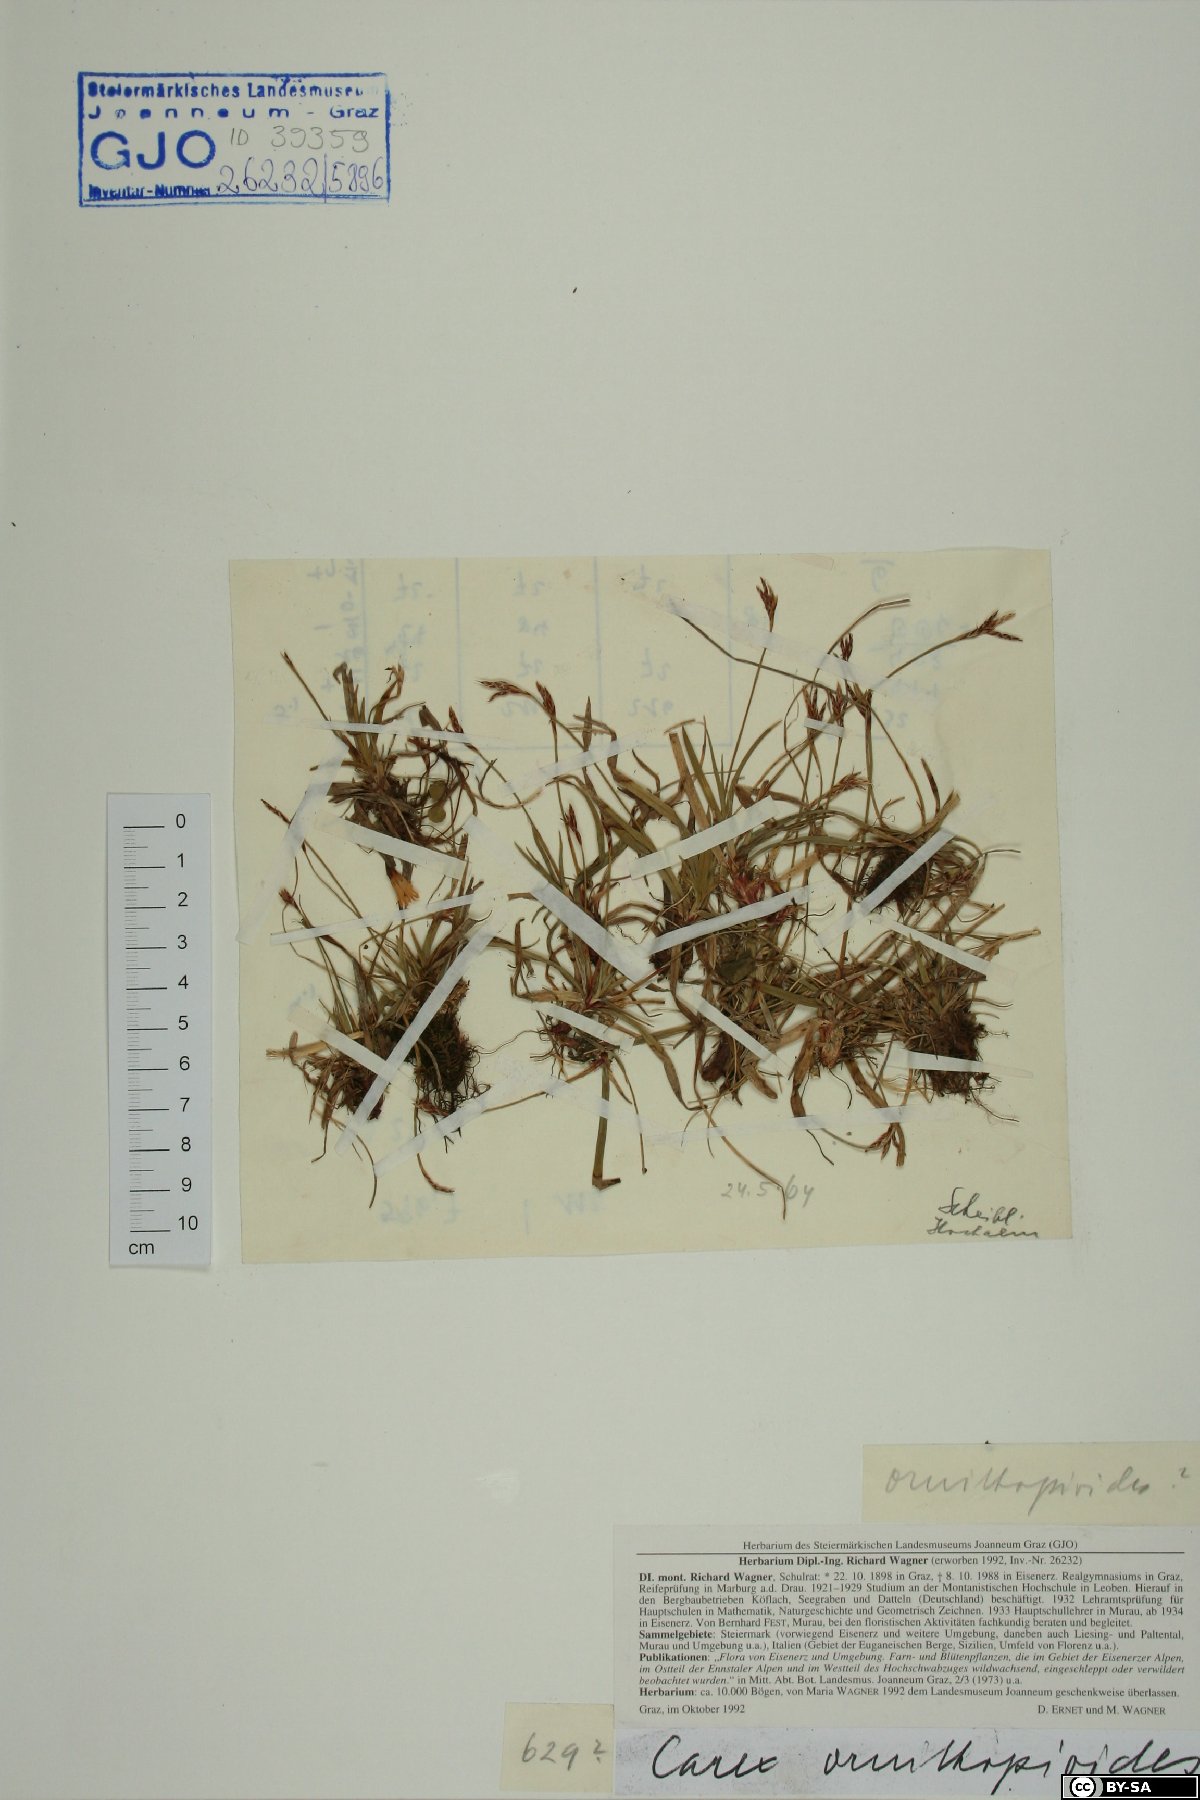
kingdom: Plantae
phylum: Tracheophyta
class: Liliopsida
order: Poales
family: Cyperaceae
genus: Carex
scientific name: Carex ornithopoda
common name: Bird's-foot sedge
